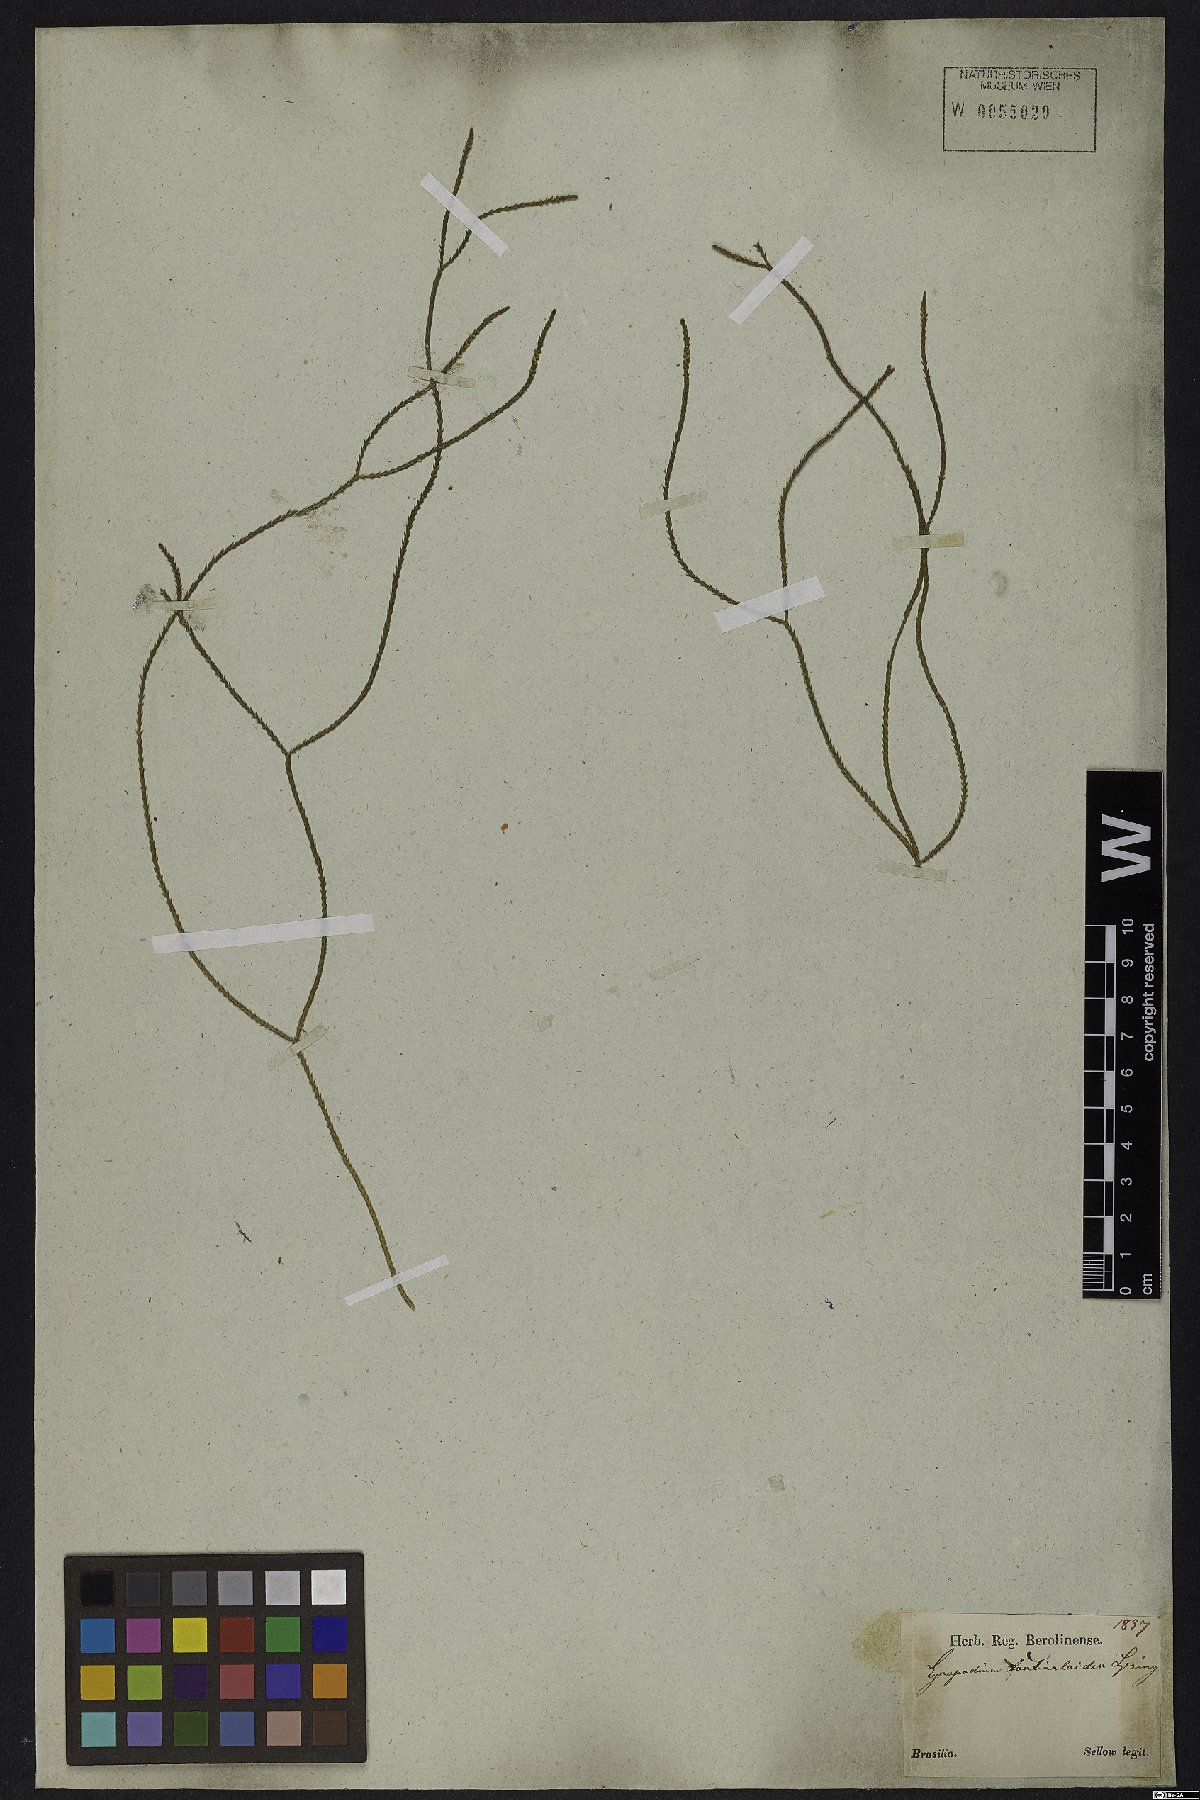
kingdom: Plantae
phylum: Tracheophyta
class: Lycopodiopsida
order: Lycopodiales
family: Lycopodiaceae
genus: Phlegmariurus
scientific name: Phlegmariurus fontinaloides
